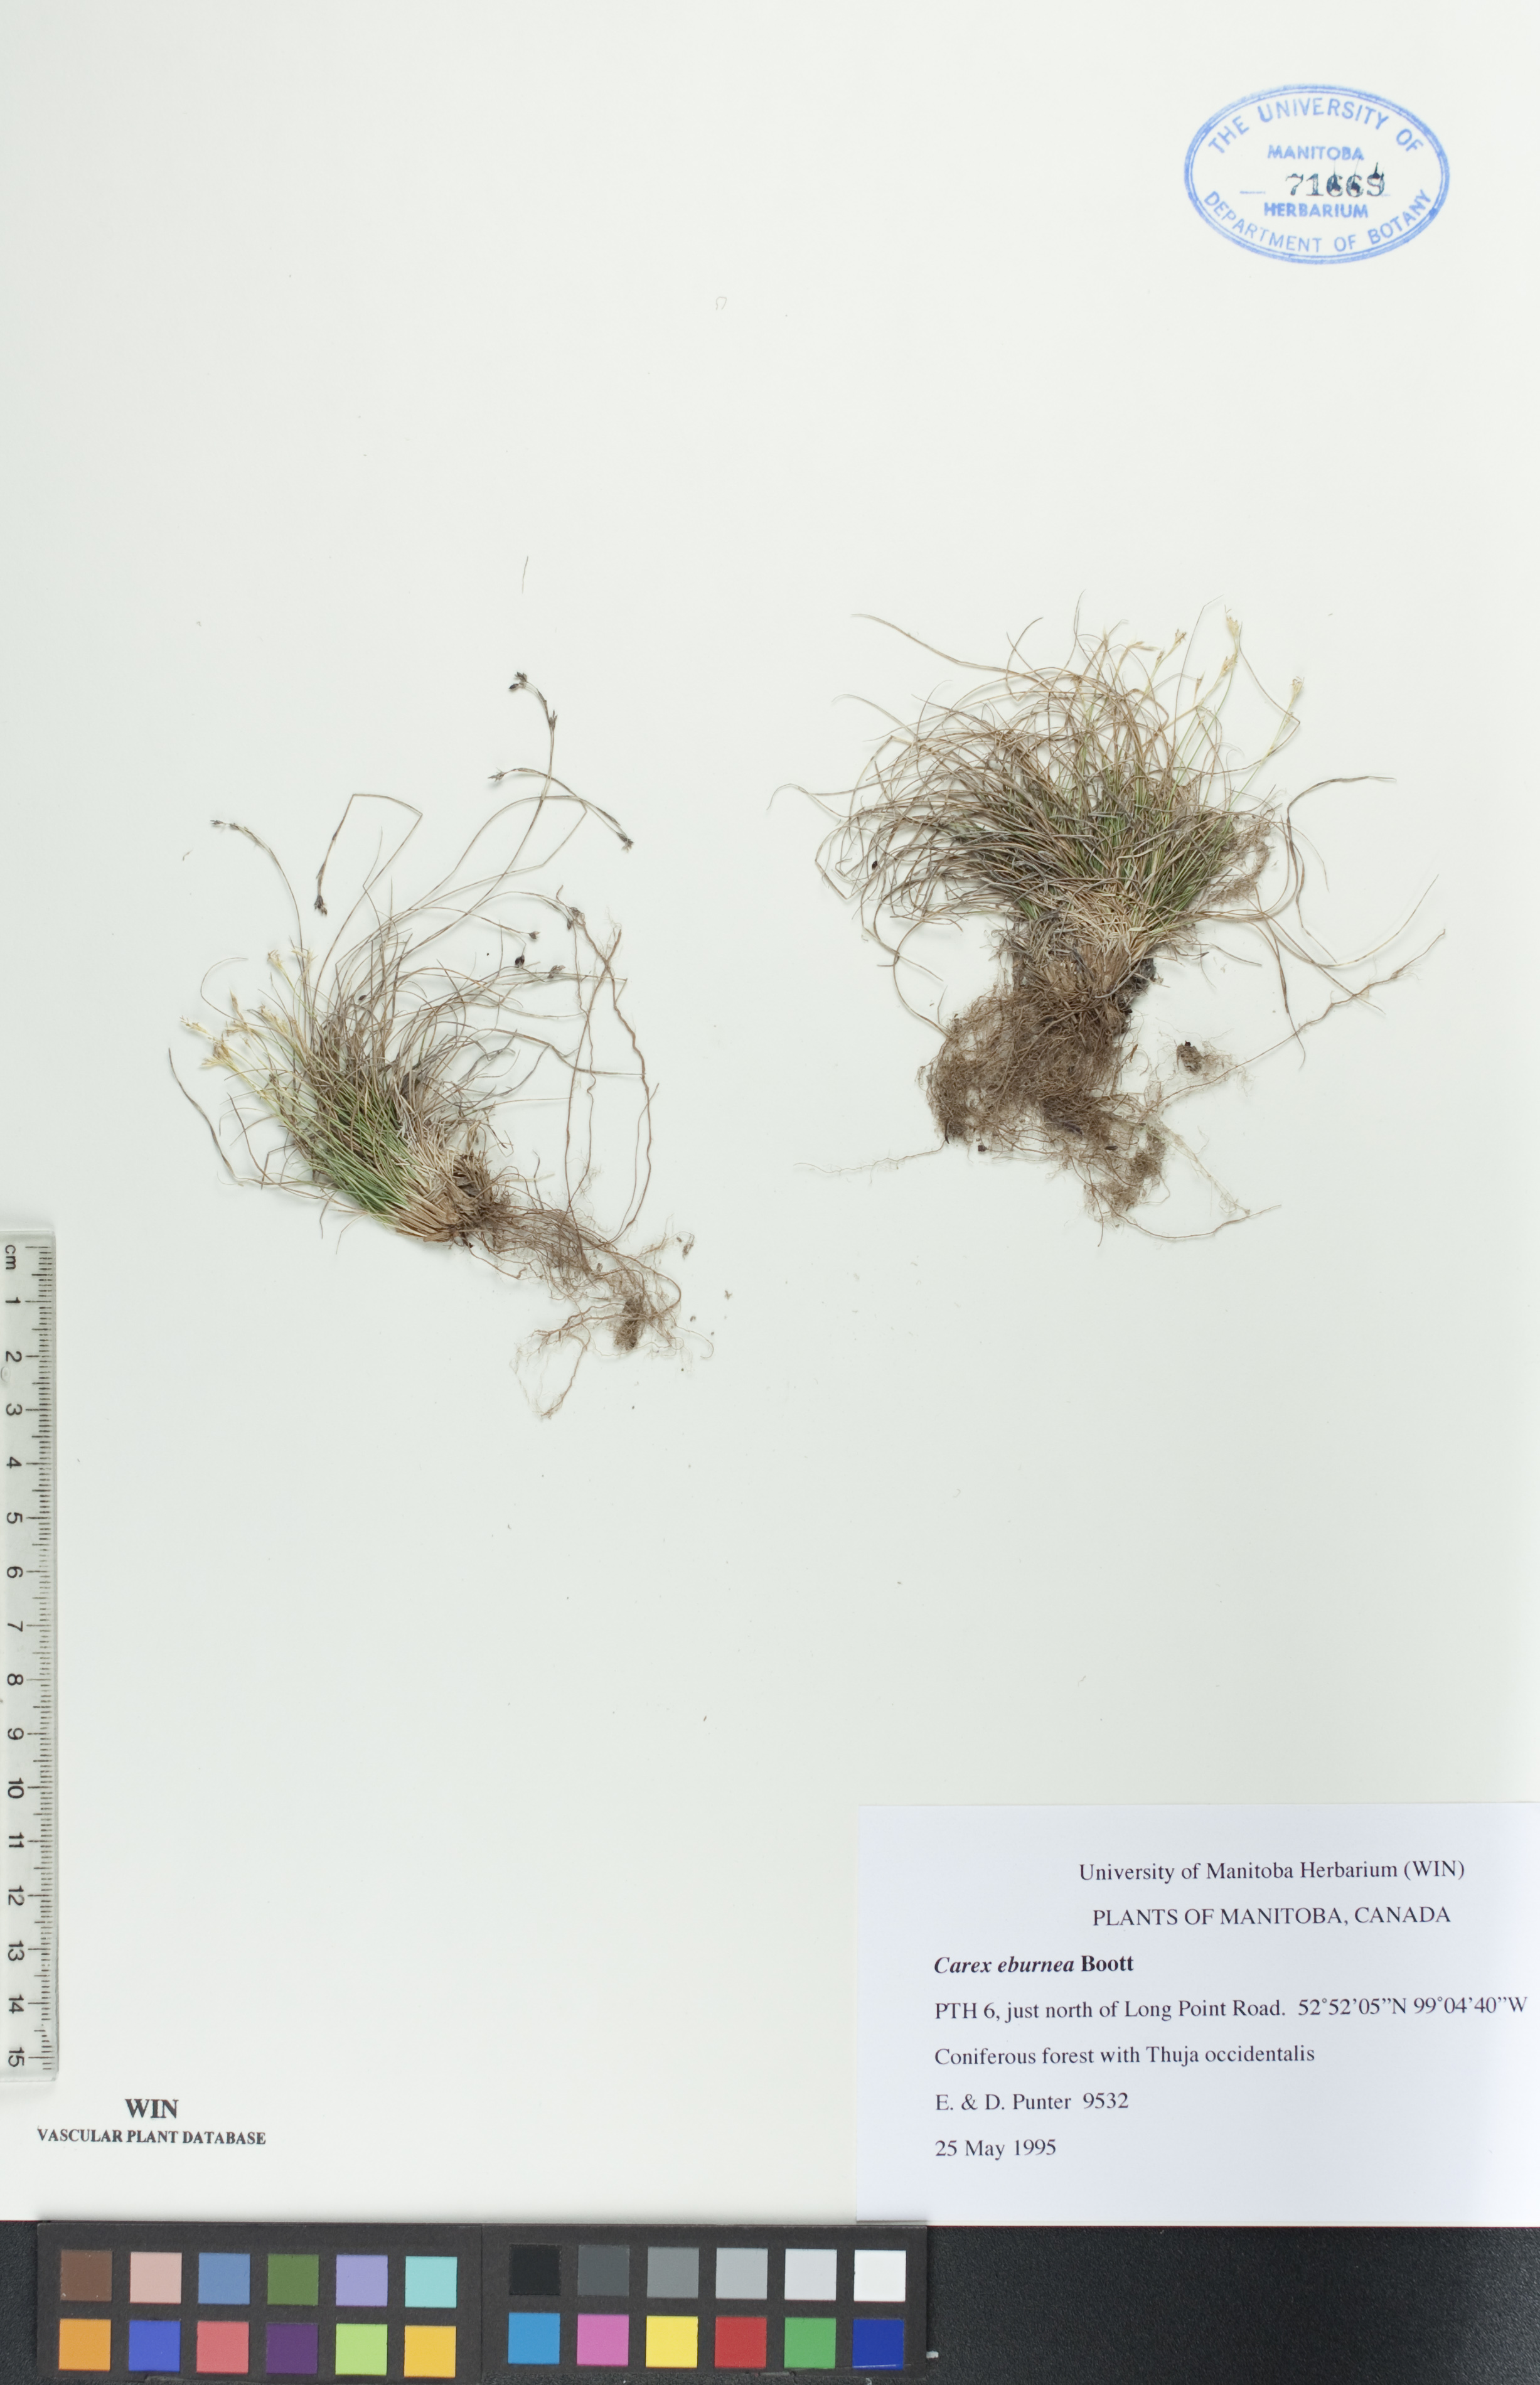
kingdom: Plantae
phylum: Tracheophyta
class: Liliopsida
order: Poales
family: Cyperaceae
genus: Carex
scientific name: Carex eburnea
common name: Bristle-leaved sedge
